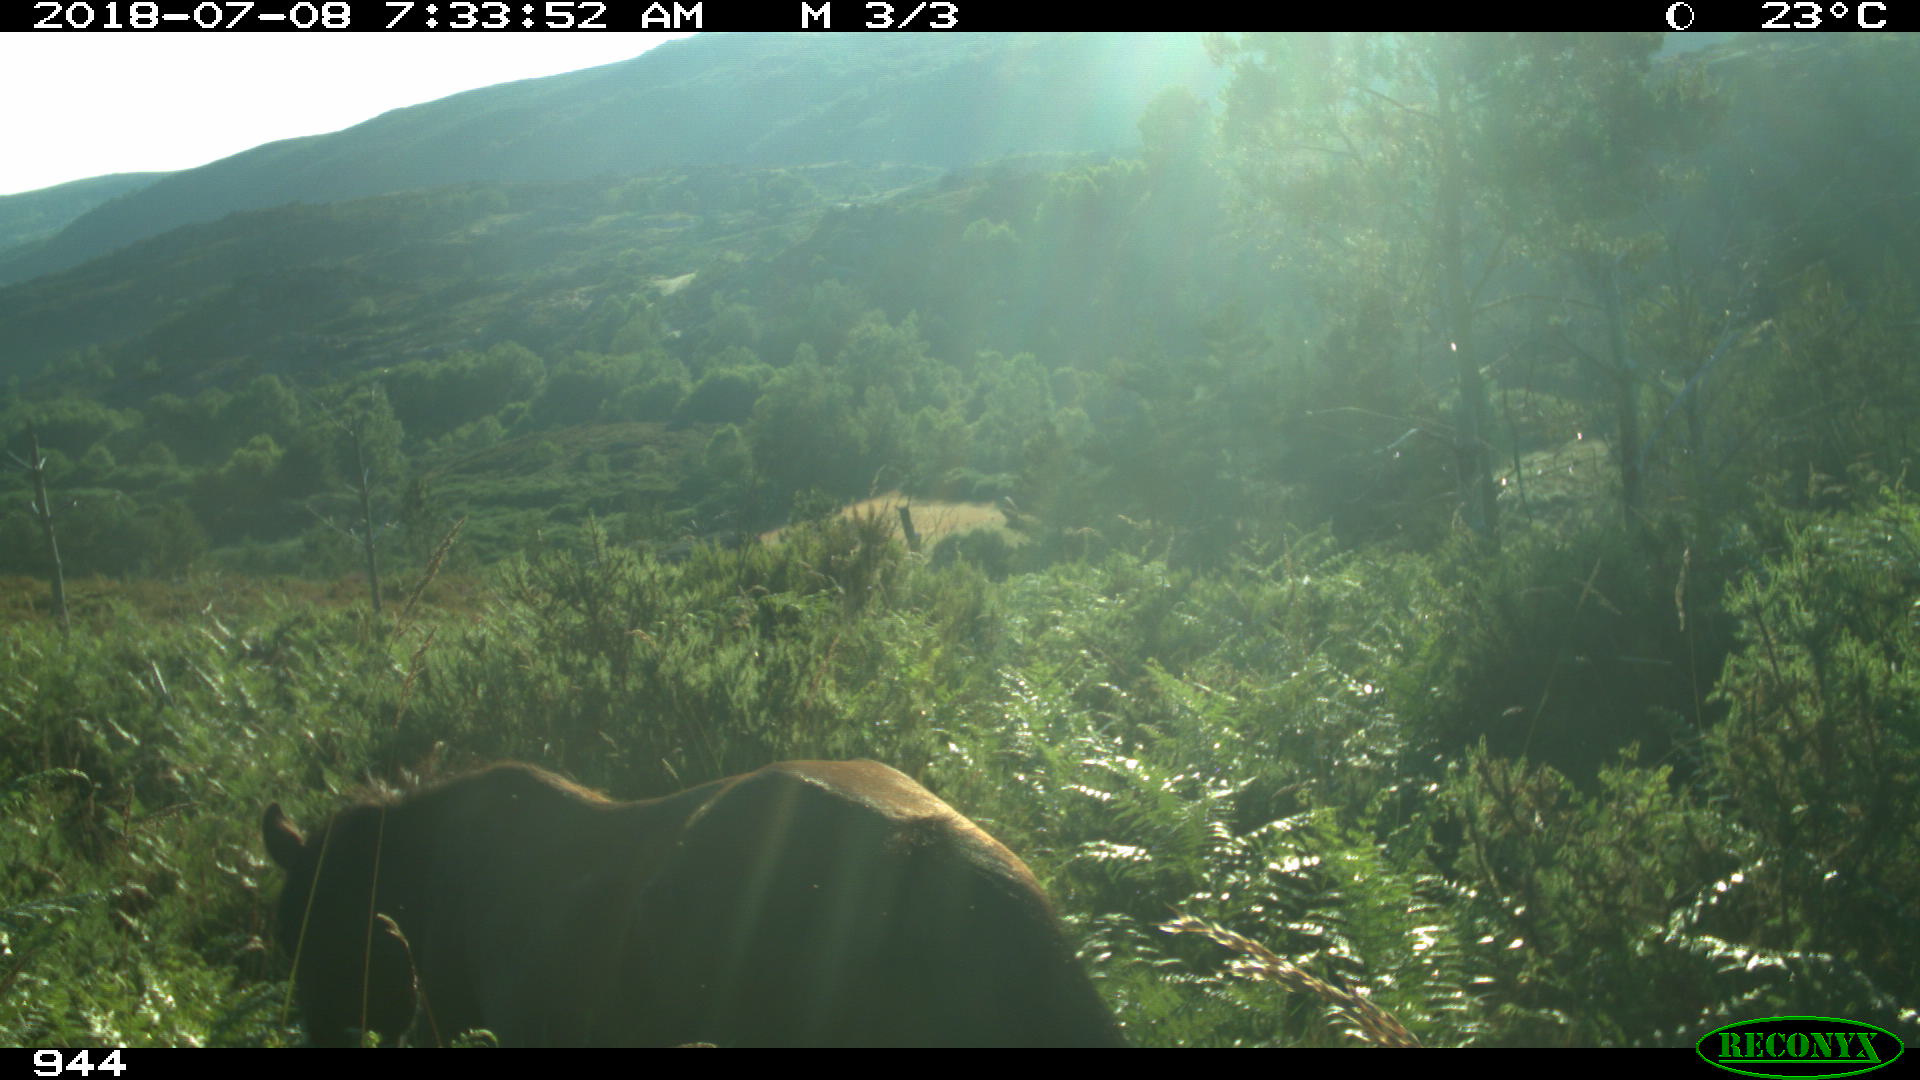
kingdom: Animalia
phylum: Chordata
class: Mammalia
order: Perissodactyla
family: Equidae
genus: Equus
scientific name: Equus caballus
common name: Horse
